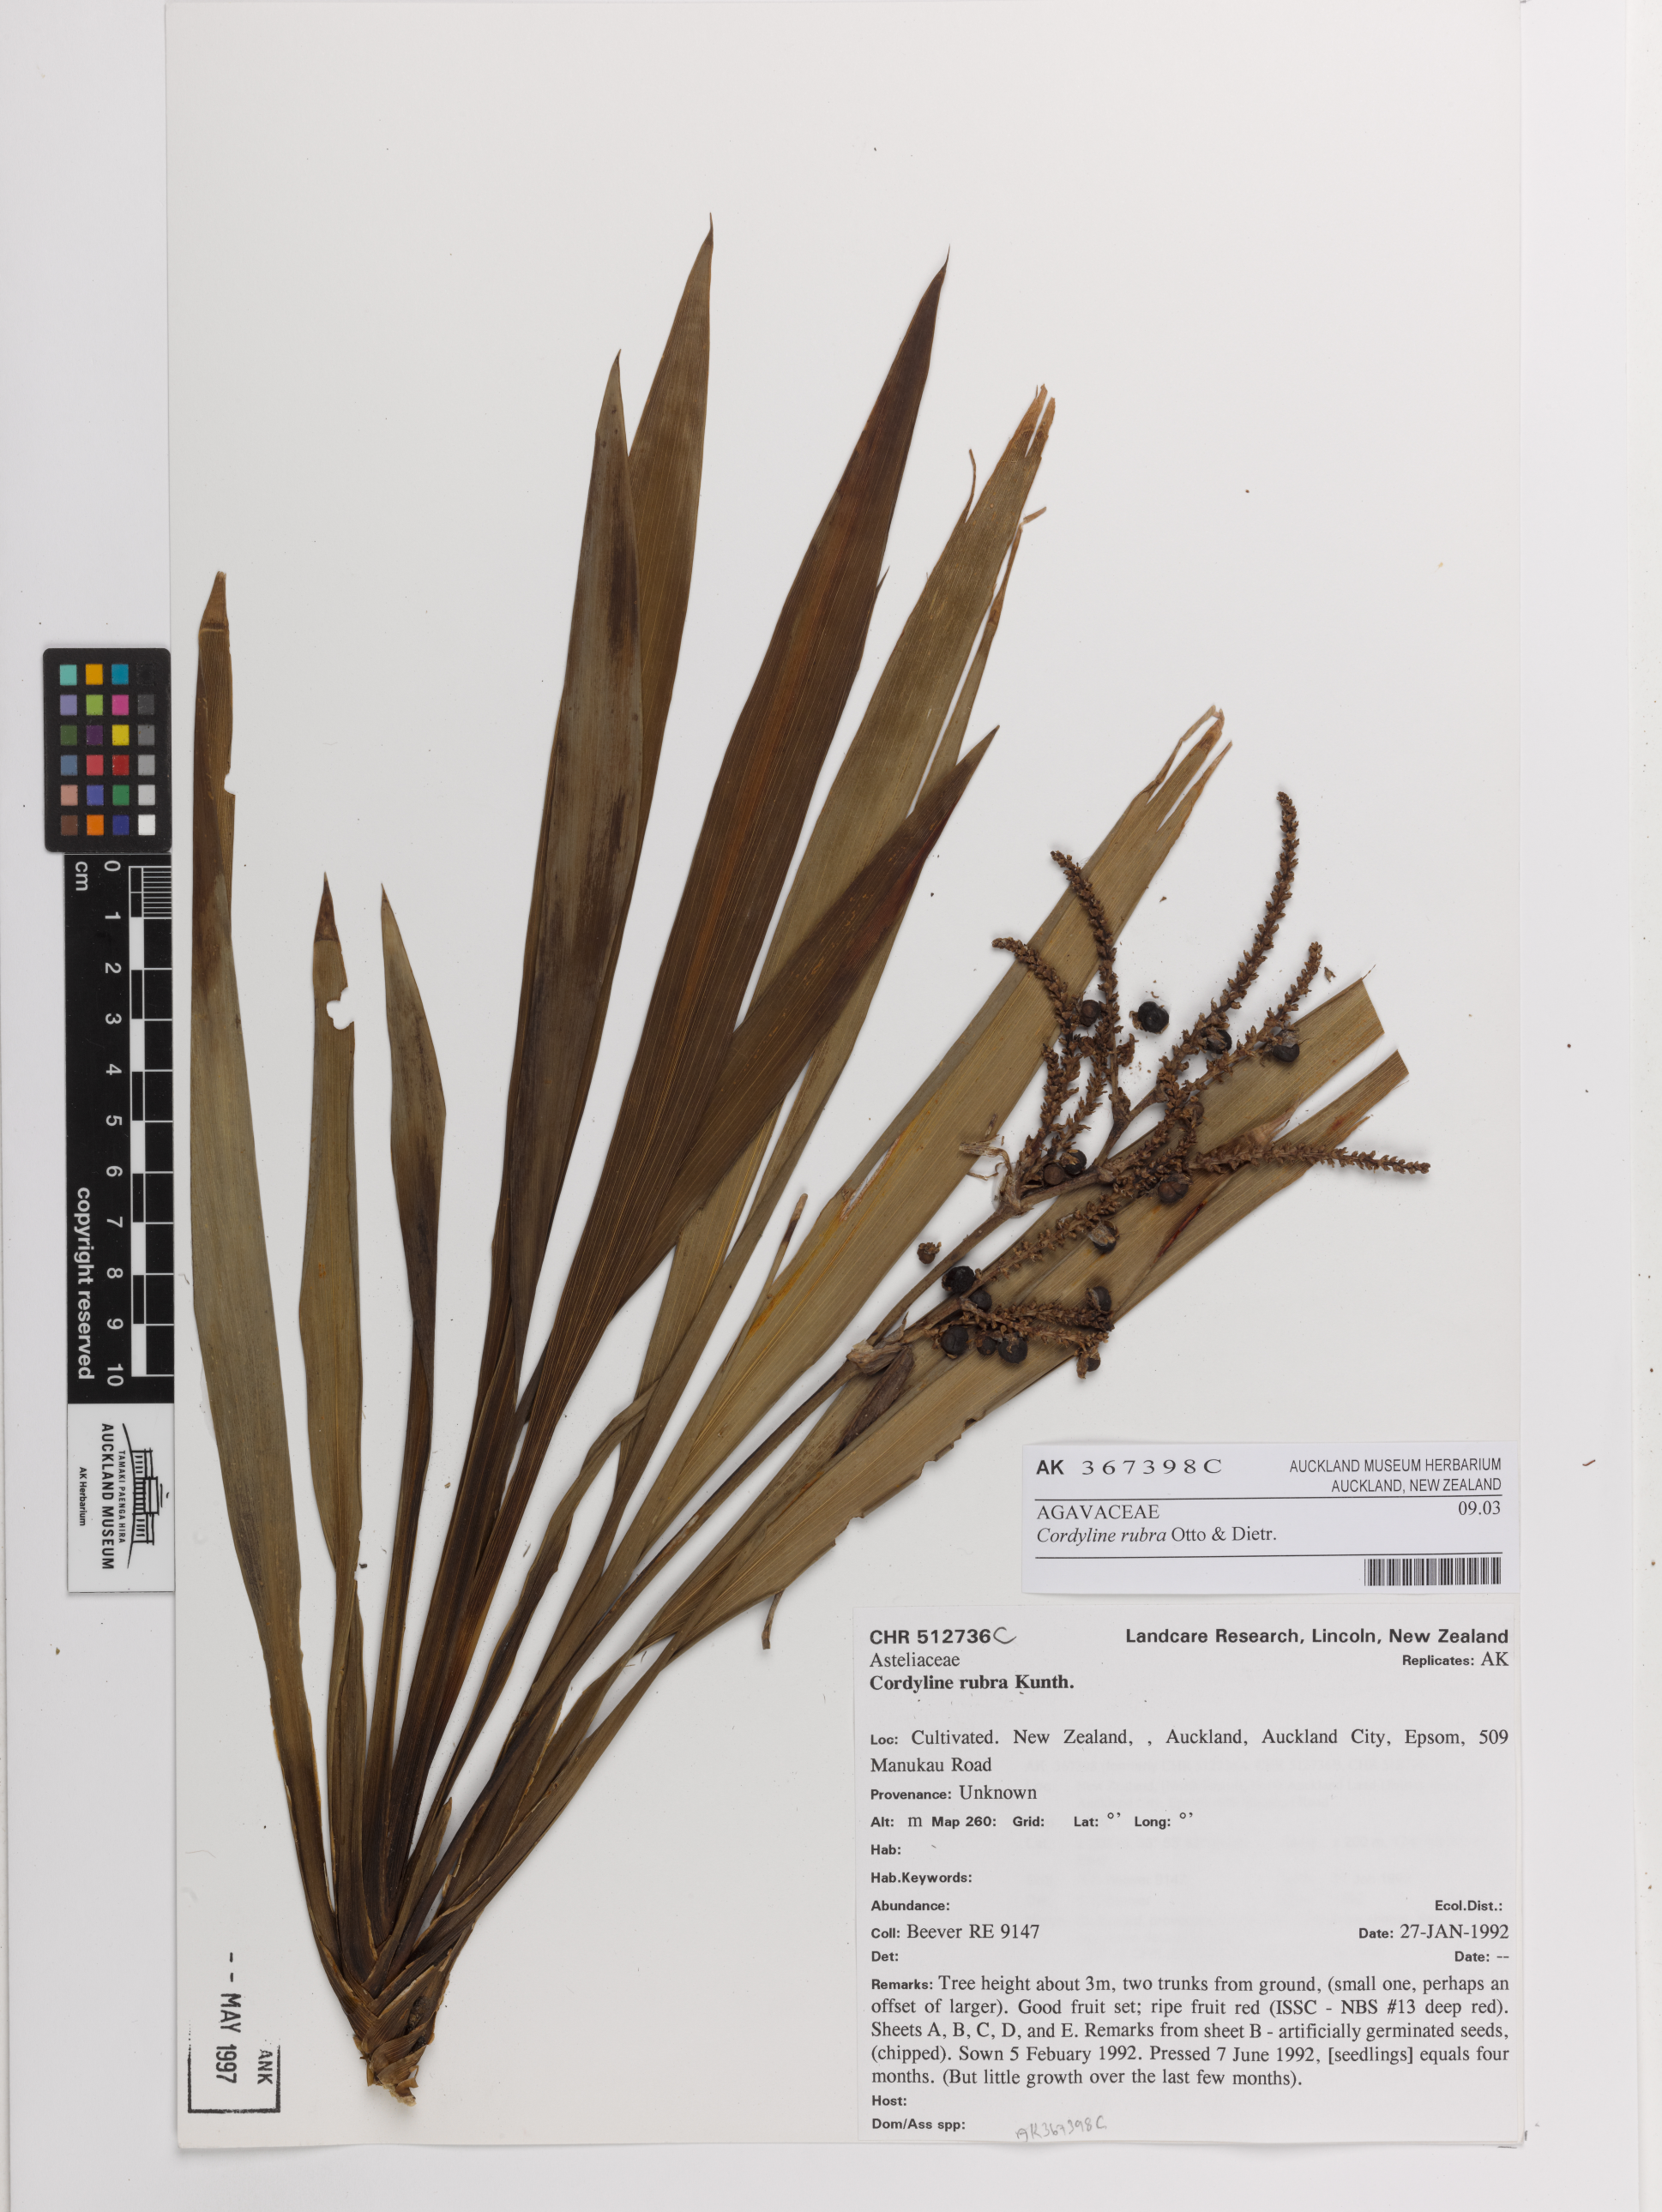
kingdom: Plantae
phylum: Tracheophyta
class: Liliopsida
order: Asparagales
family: Asparagaceae
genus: Cordyline
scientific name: Cordyline rubra
